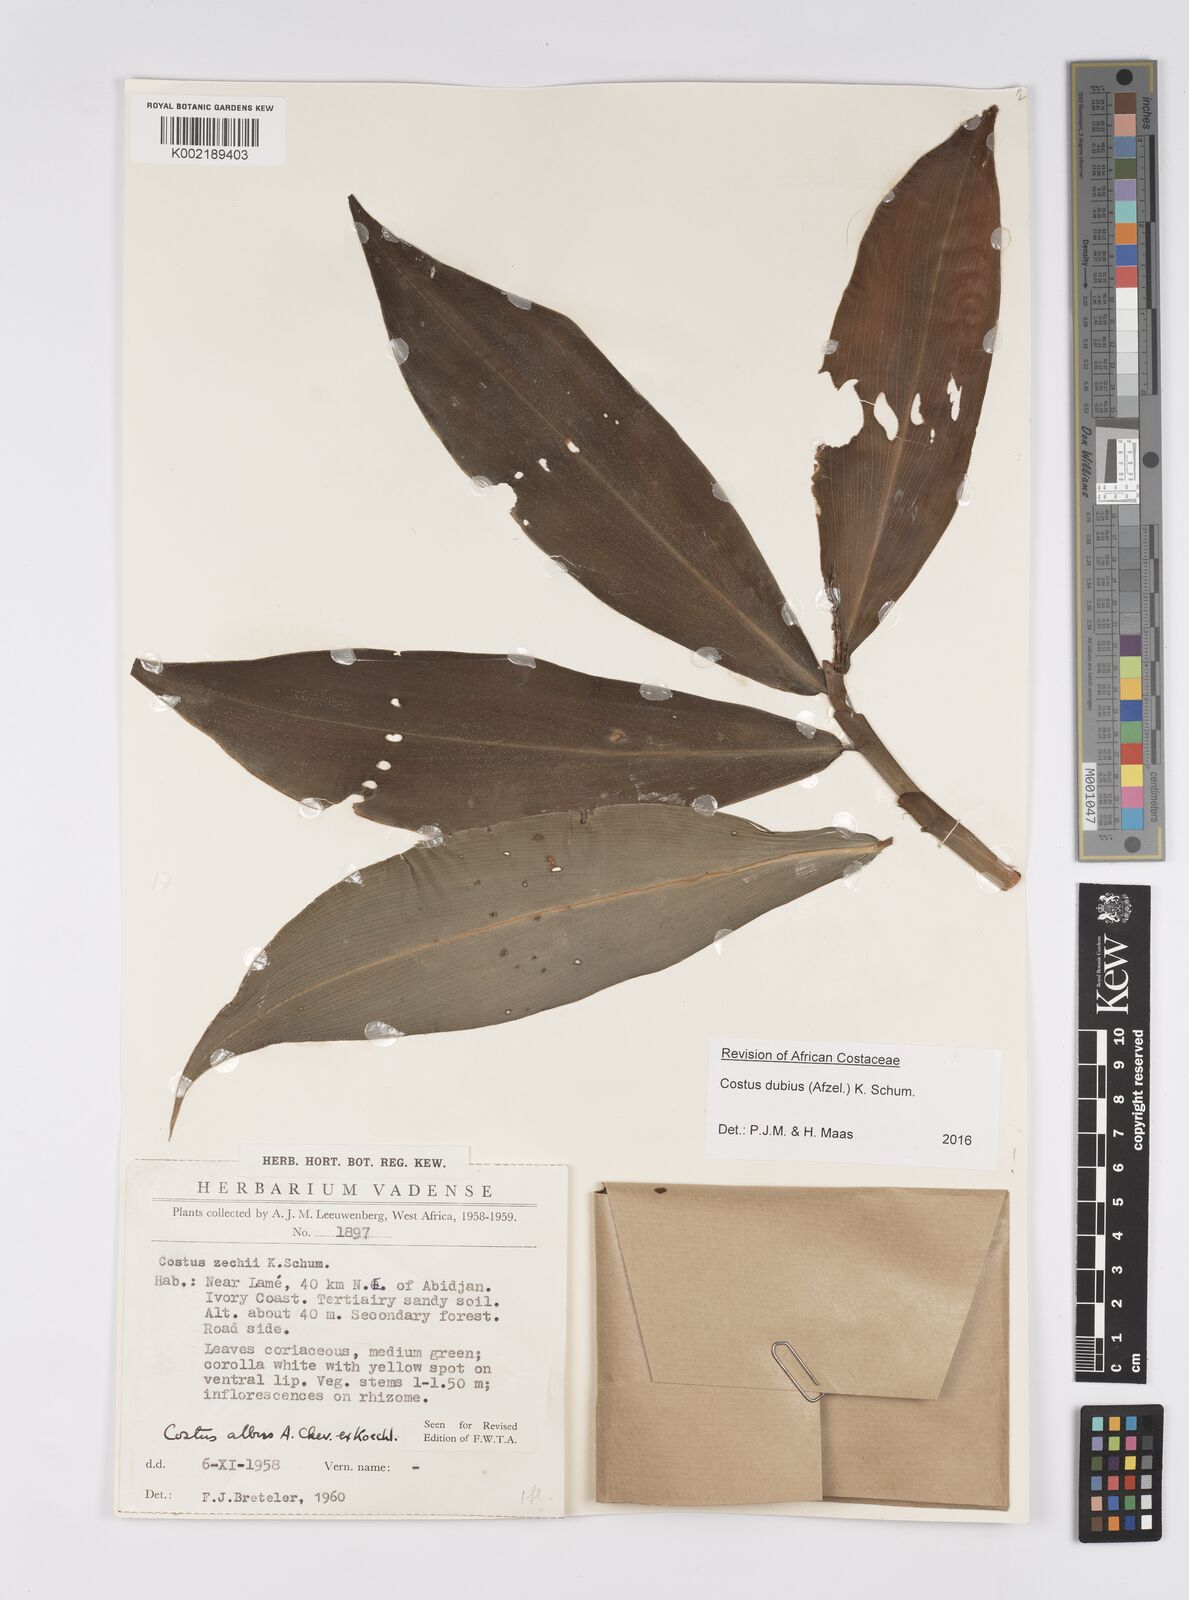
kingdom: Plantae
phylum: Tracheophyta
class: Liliopsida
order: Zingiberales
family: Costaceae
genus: Costus
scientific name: Costus dubius
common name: Costus
